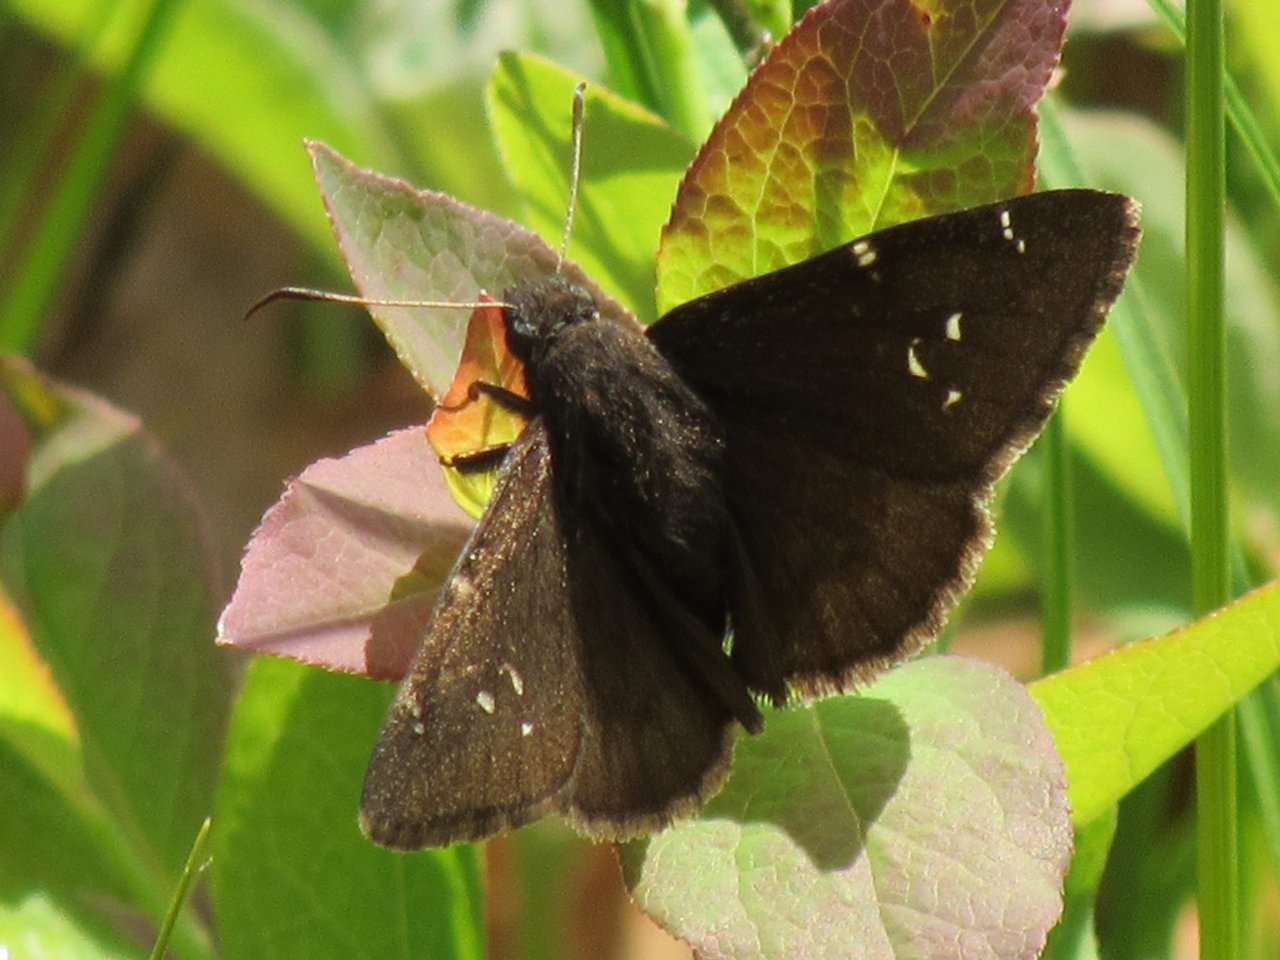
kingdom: Animalia
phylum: Arthropoda
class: Insecta
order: Lepidoptera
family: Hesperiidae
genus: Autochton
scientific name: Autochton
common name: Northern Cloudywing
